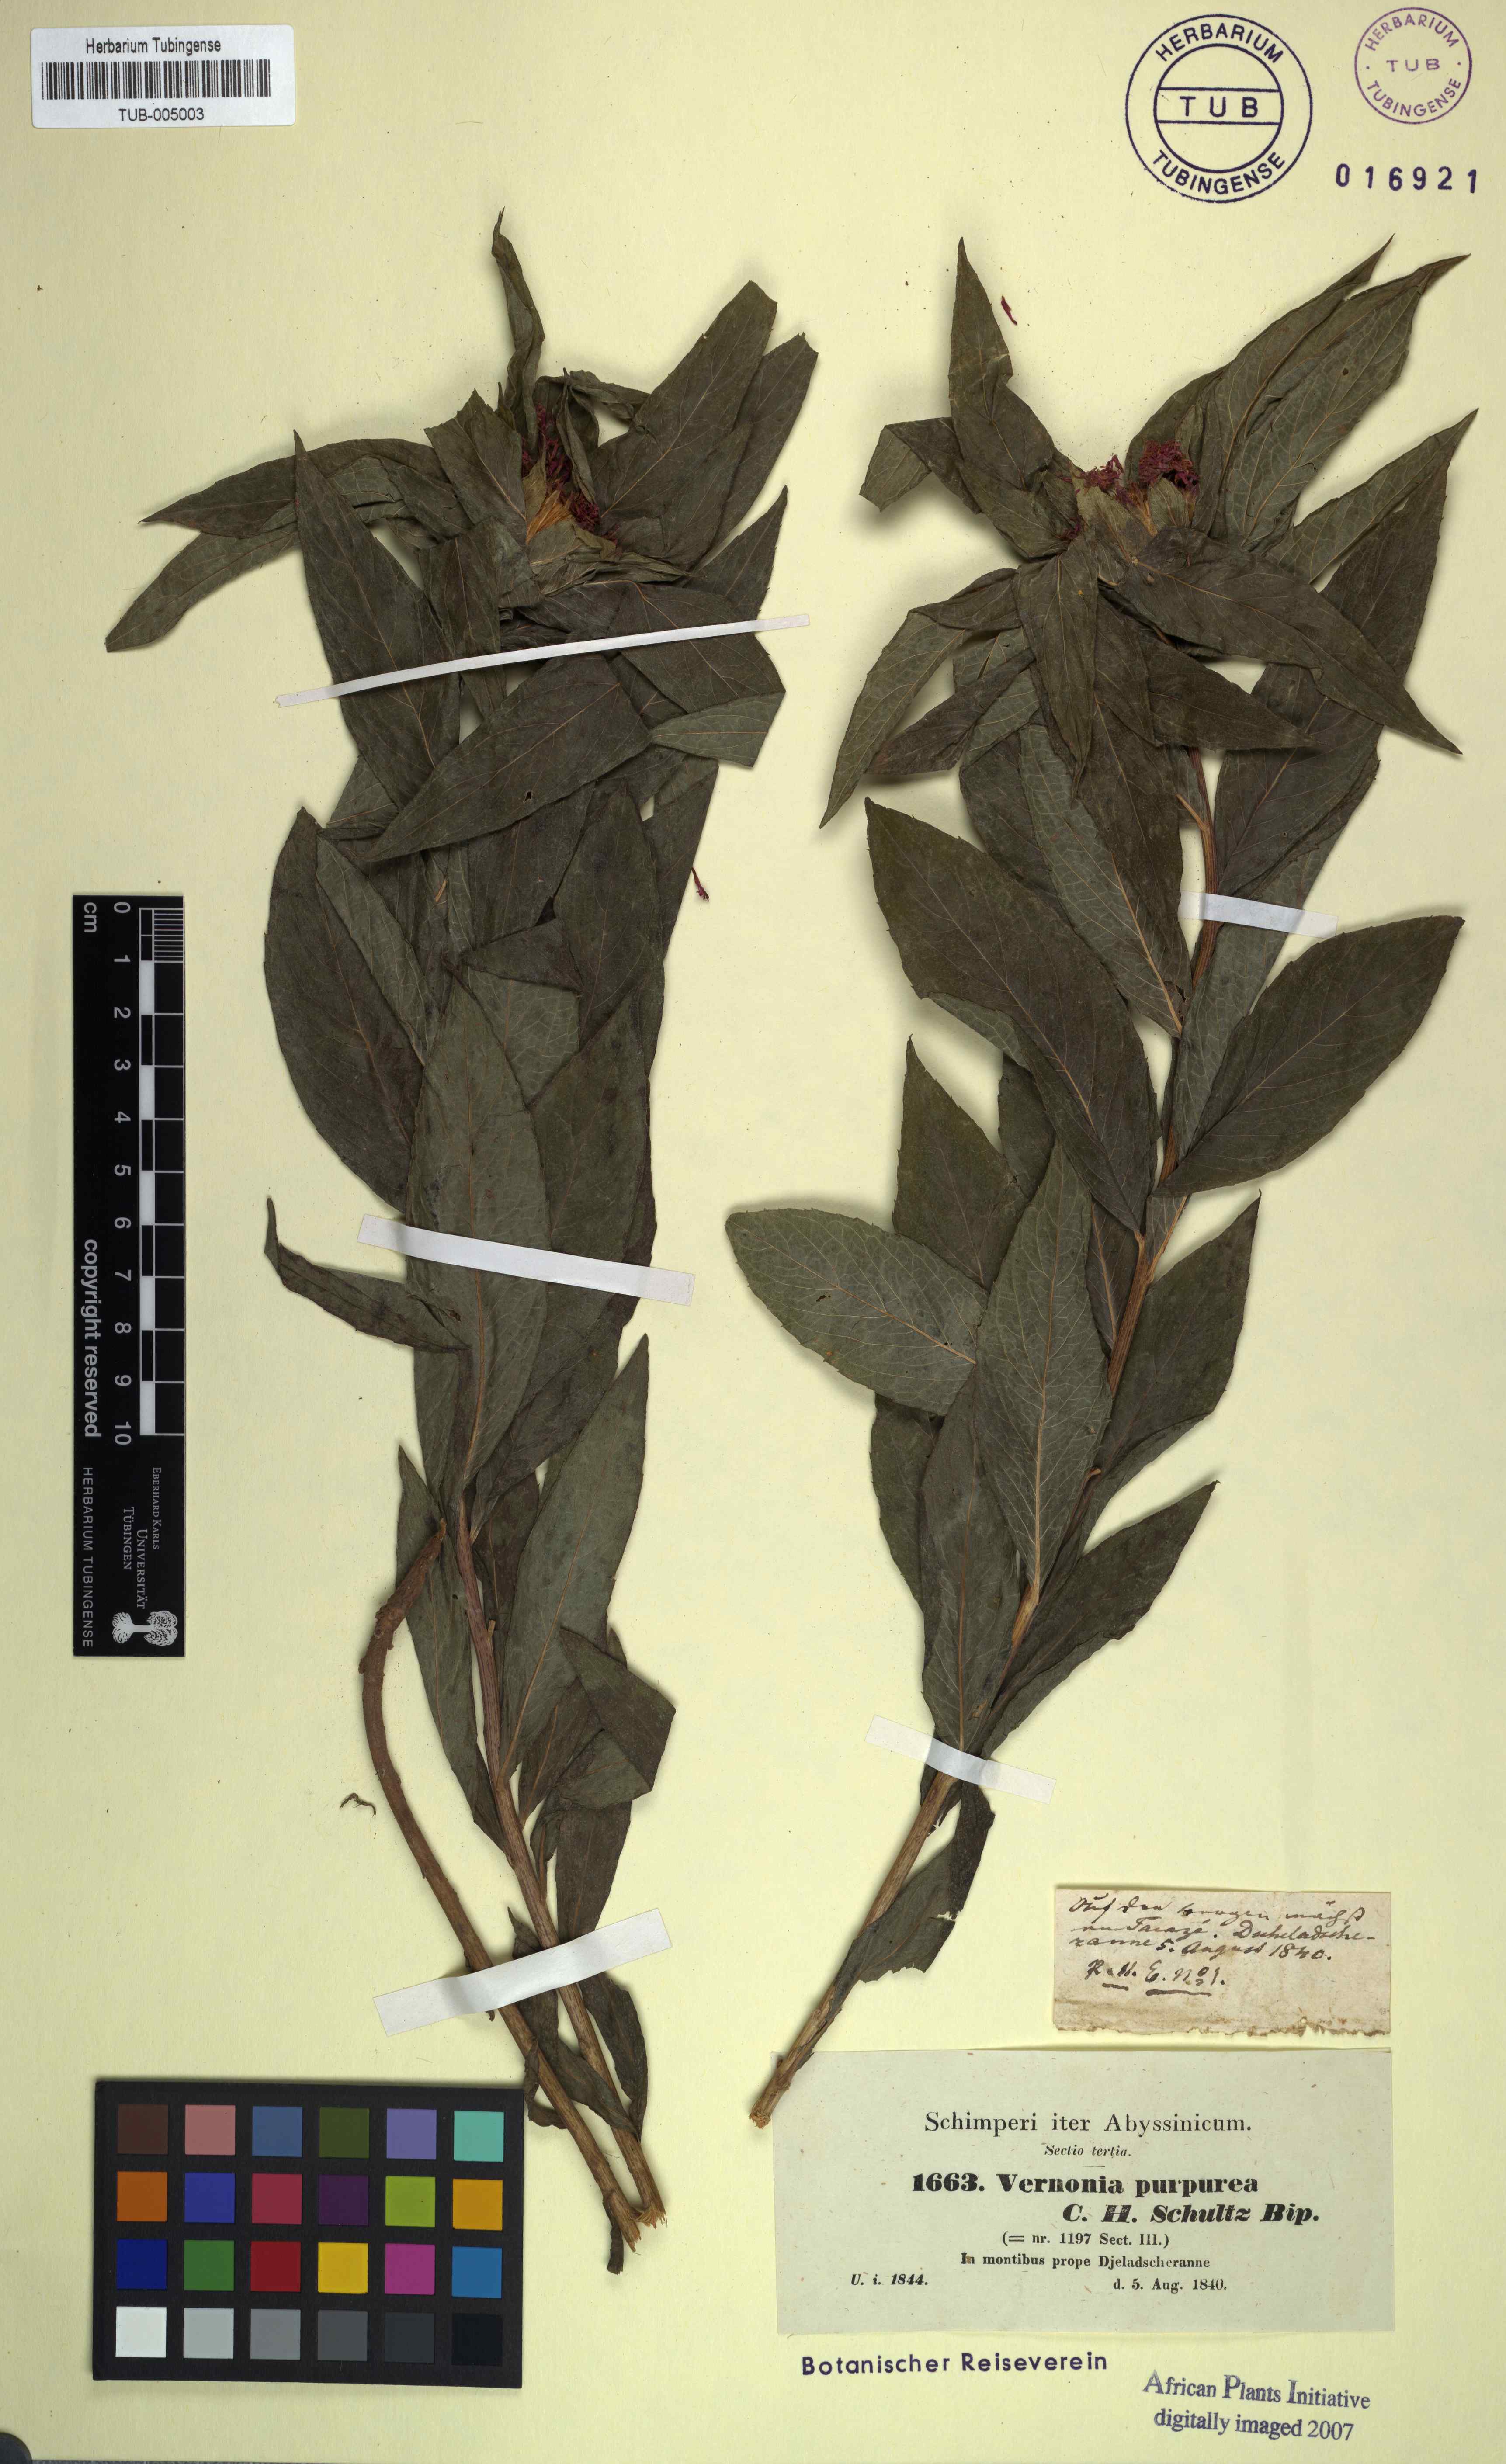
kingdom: Plantae
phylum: Tracheophyta
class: Magnoliopsida
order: Asterales
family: Asteraceae
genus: Nothovernonia
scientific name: Nothovernonia purpurea
